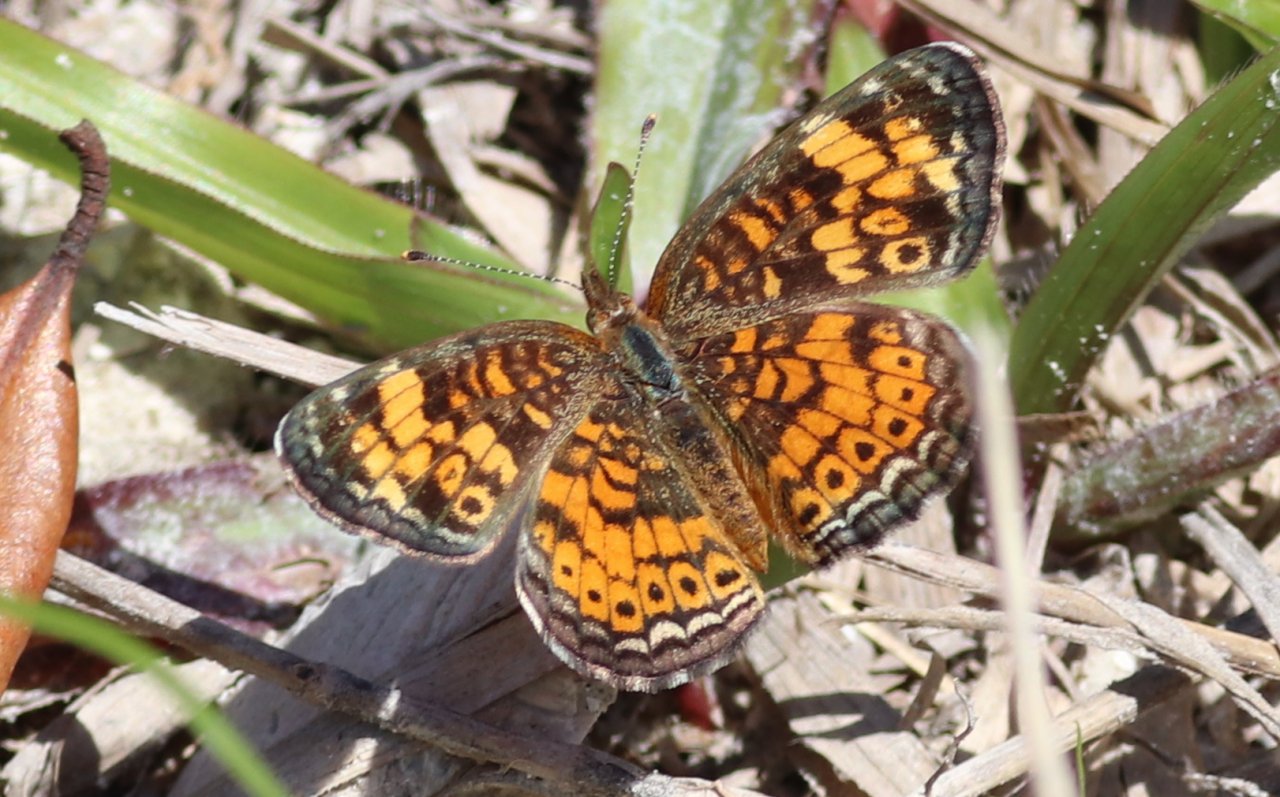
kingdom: Animalia
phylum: Arthropoda
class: Insecta
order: Lepidoptera
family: Nymphalidae
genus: Phyciodes
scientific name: Phyciodes tharos
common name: Pearl Crescent
